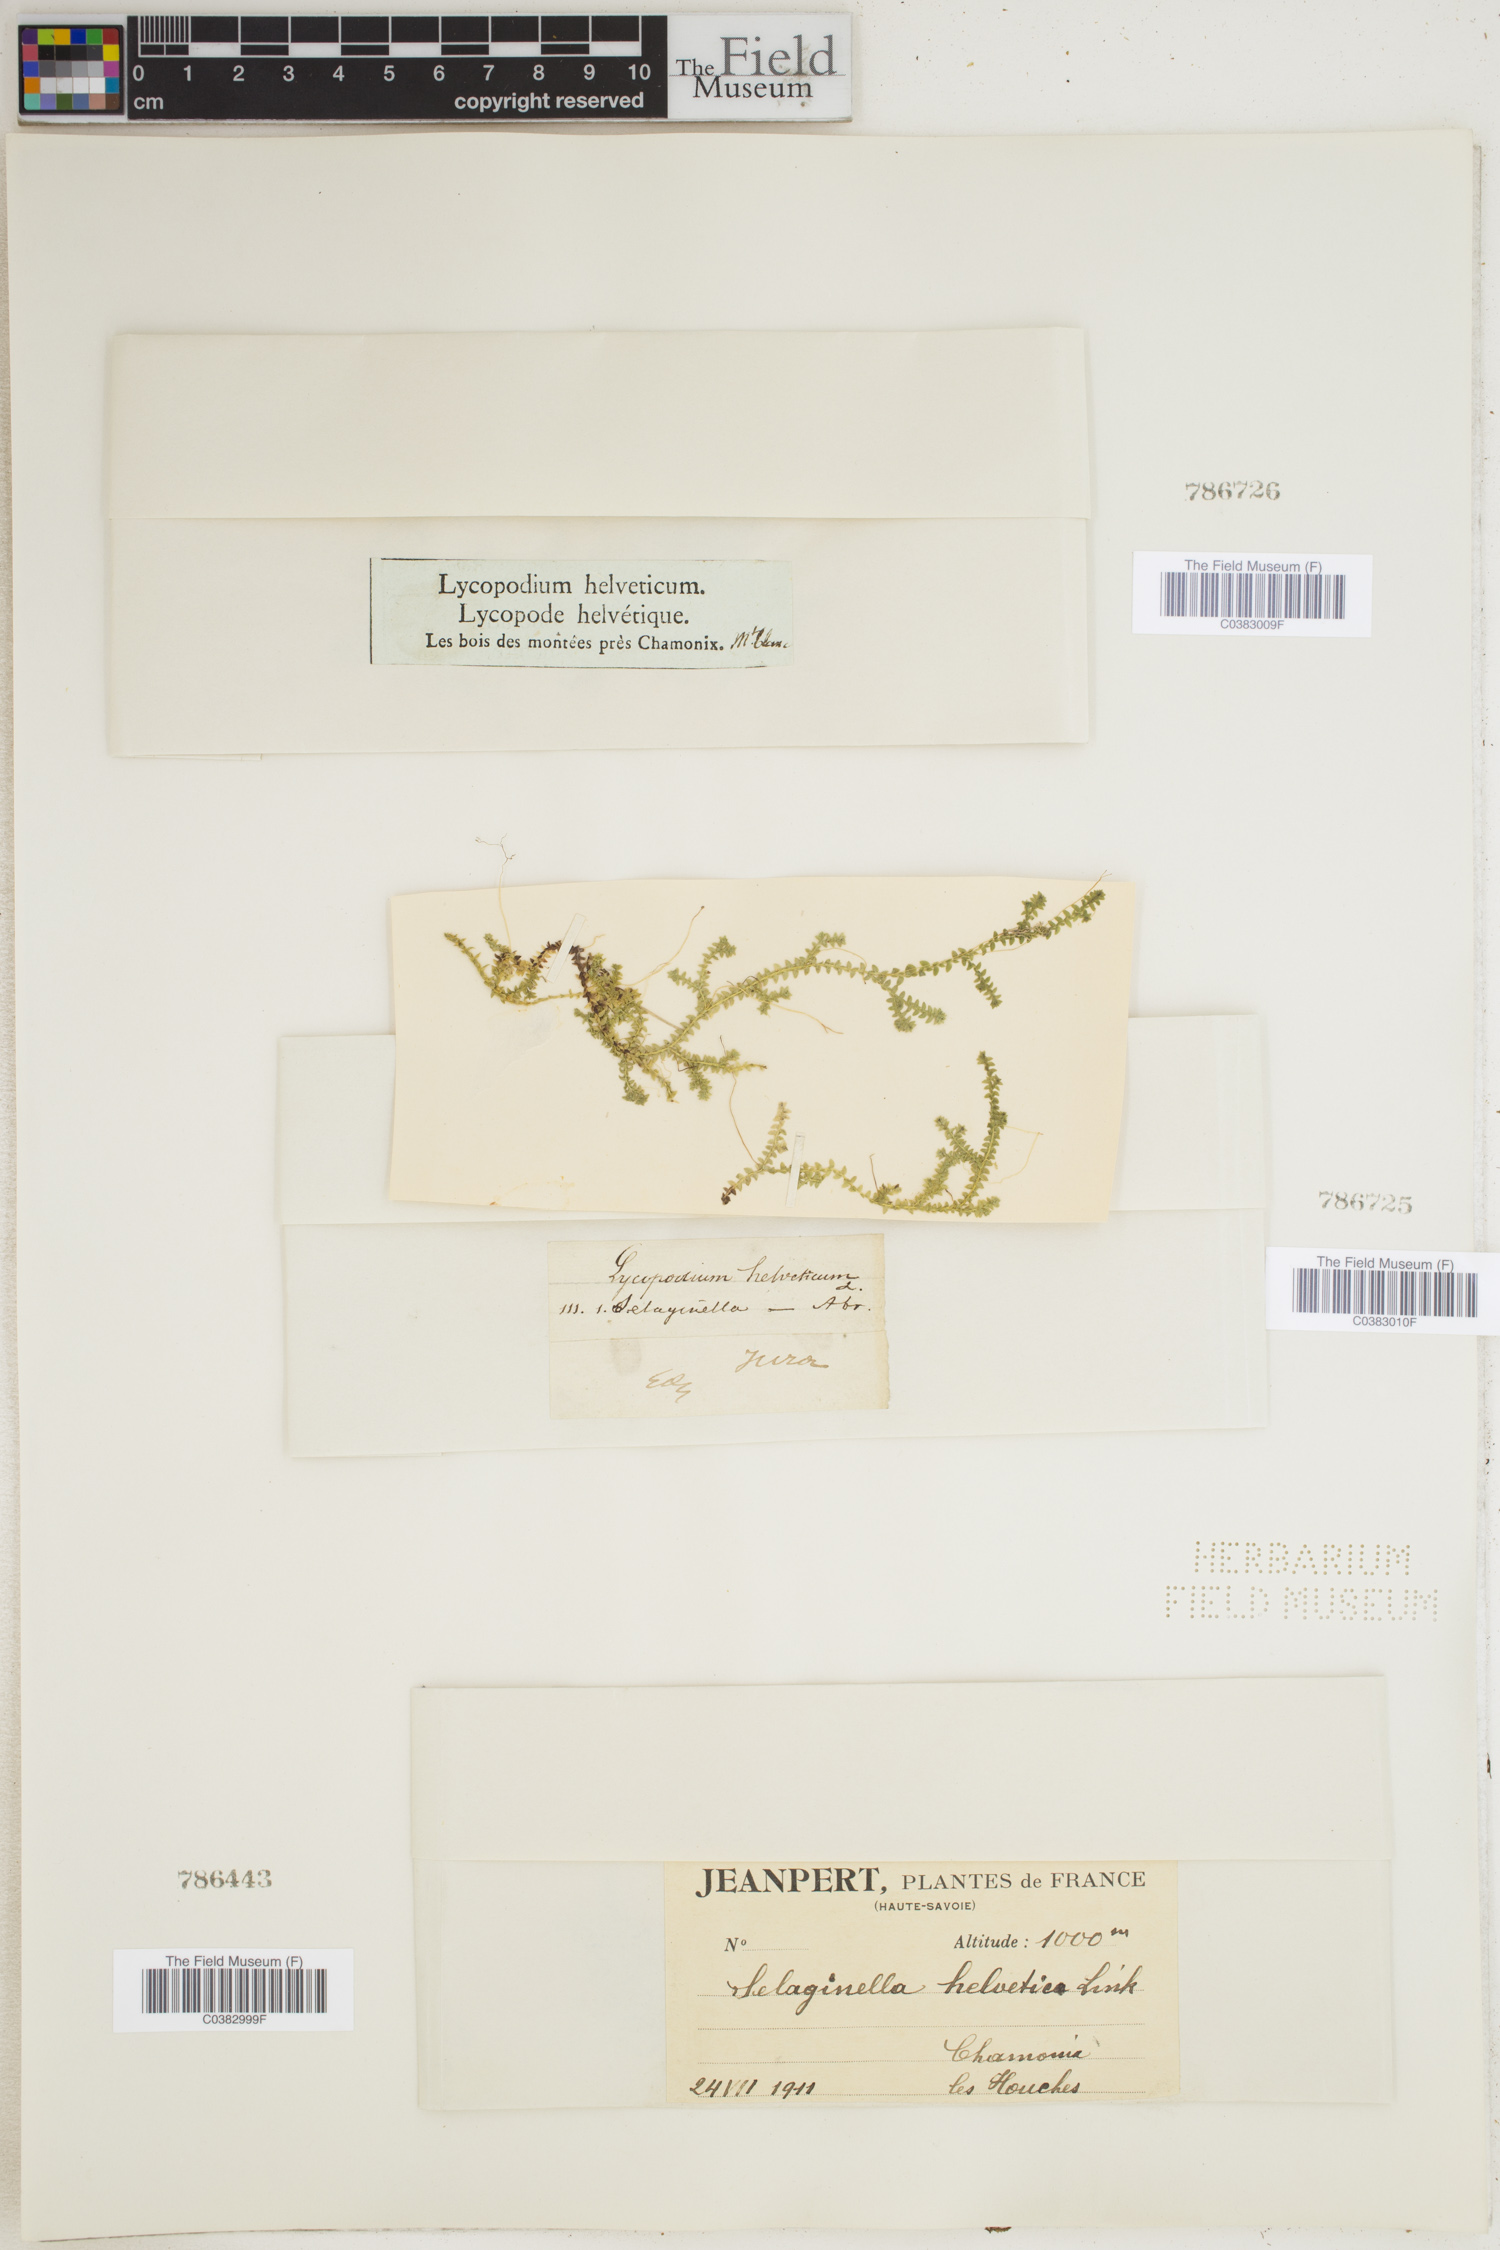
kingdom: Plantae
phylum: Tracheophyta
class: Lycopodiopsida
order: Selaginellales
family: Selaginellaceae
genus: Selaginella
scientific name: Selaginella helvetica
